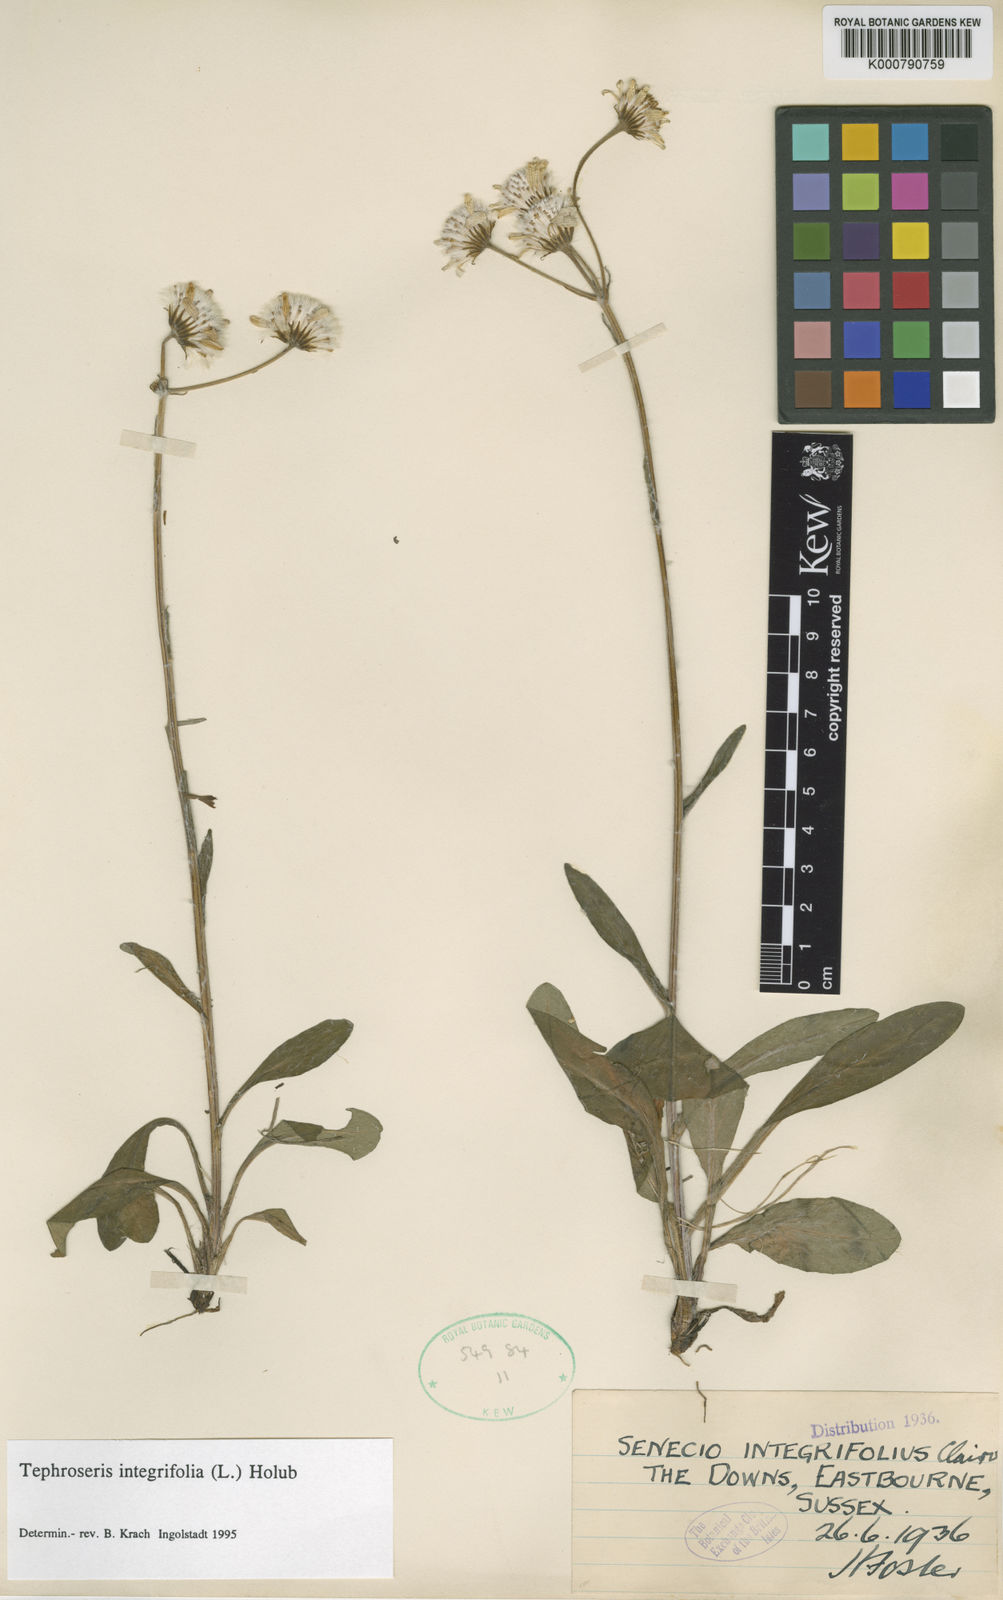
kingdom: Plantae
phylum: Tracheophyta
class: Magnoliopsida
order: Asterales
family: Asteraceae
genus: Tephroseris
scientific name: Tephroseris integrifolia
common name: Field fleawort
